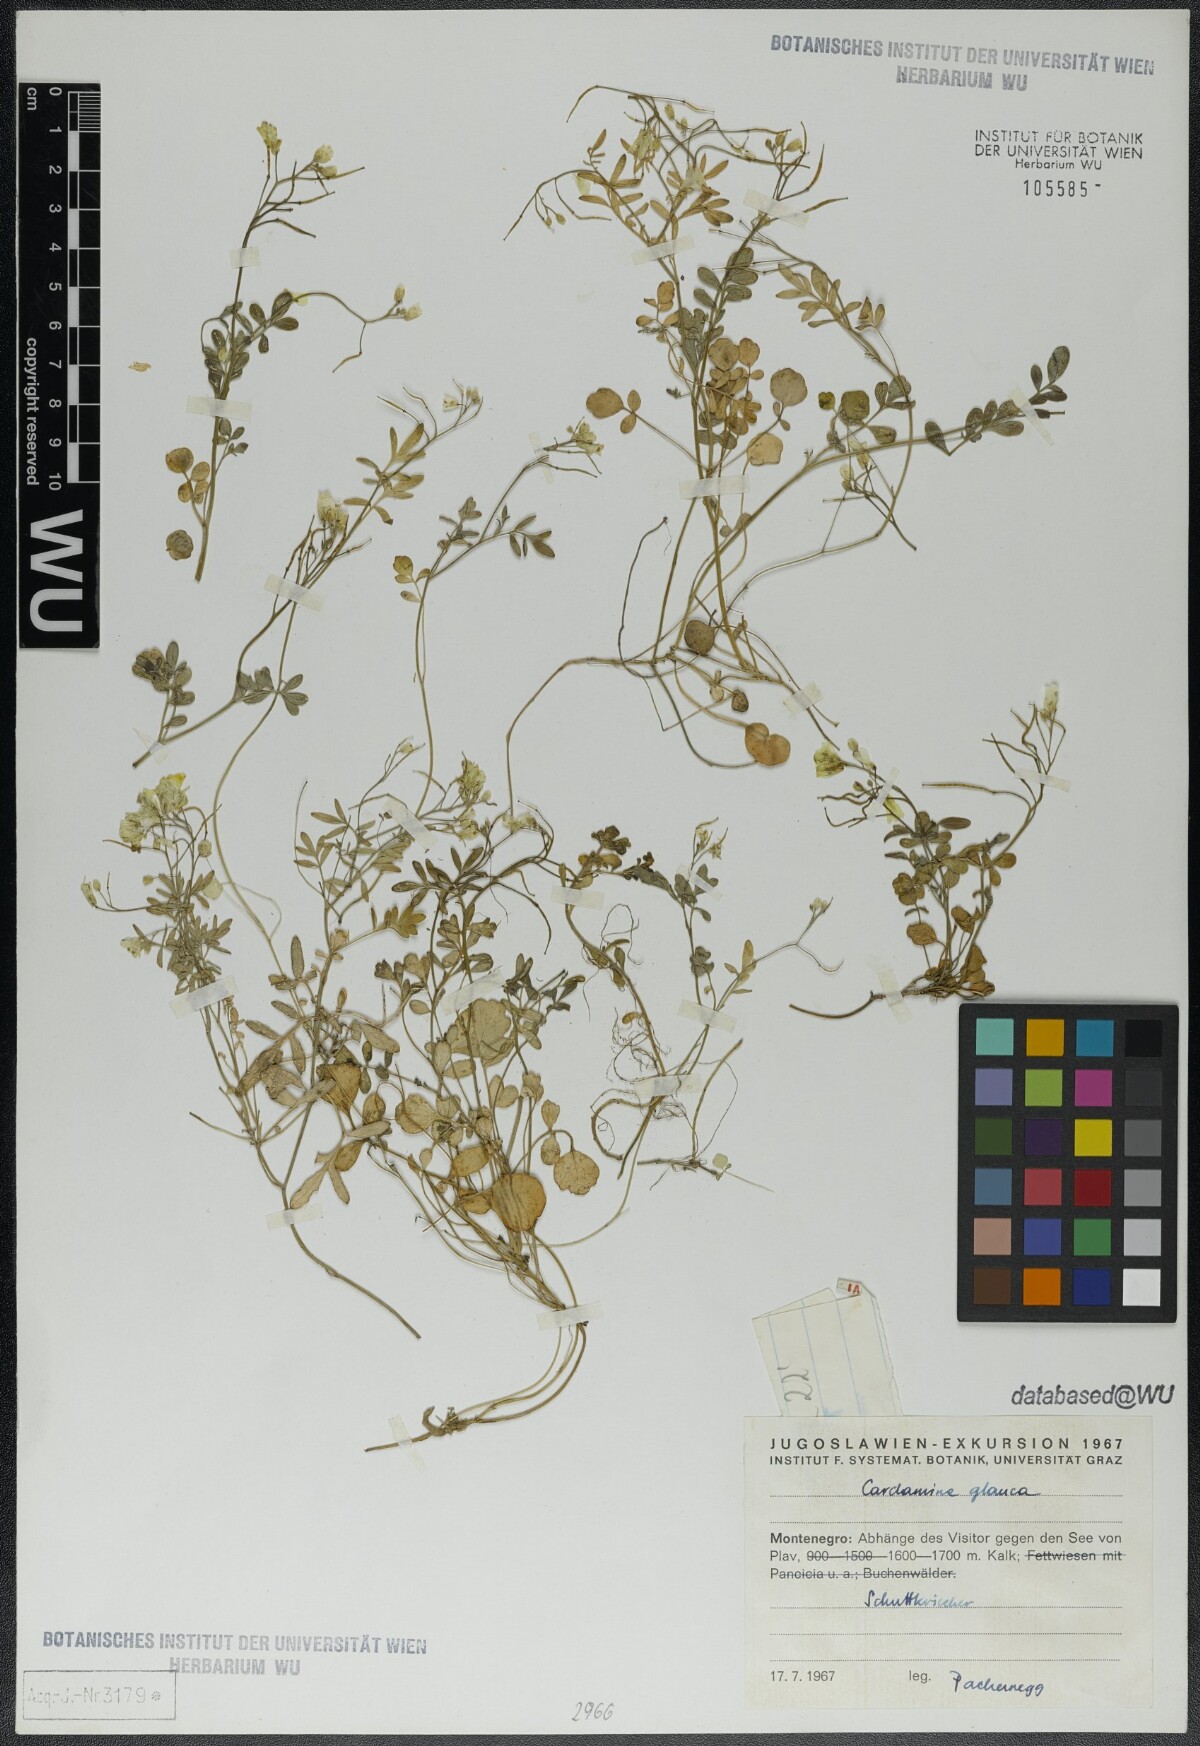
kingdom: Plantae
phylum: Tracheophyta
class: Magnoliopsida
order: Brassicales
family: Brassicaceae
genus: Cardamine
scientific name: Cardamine glauca
